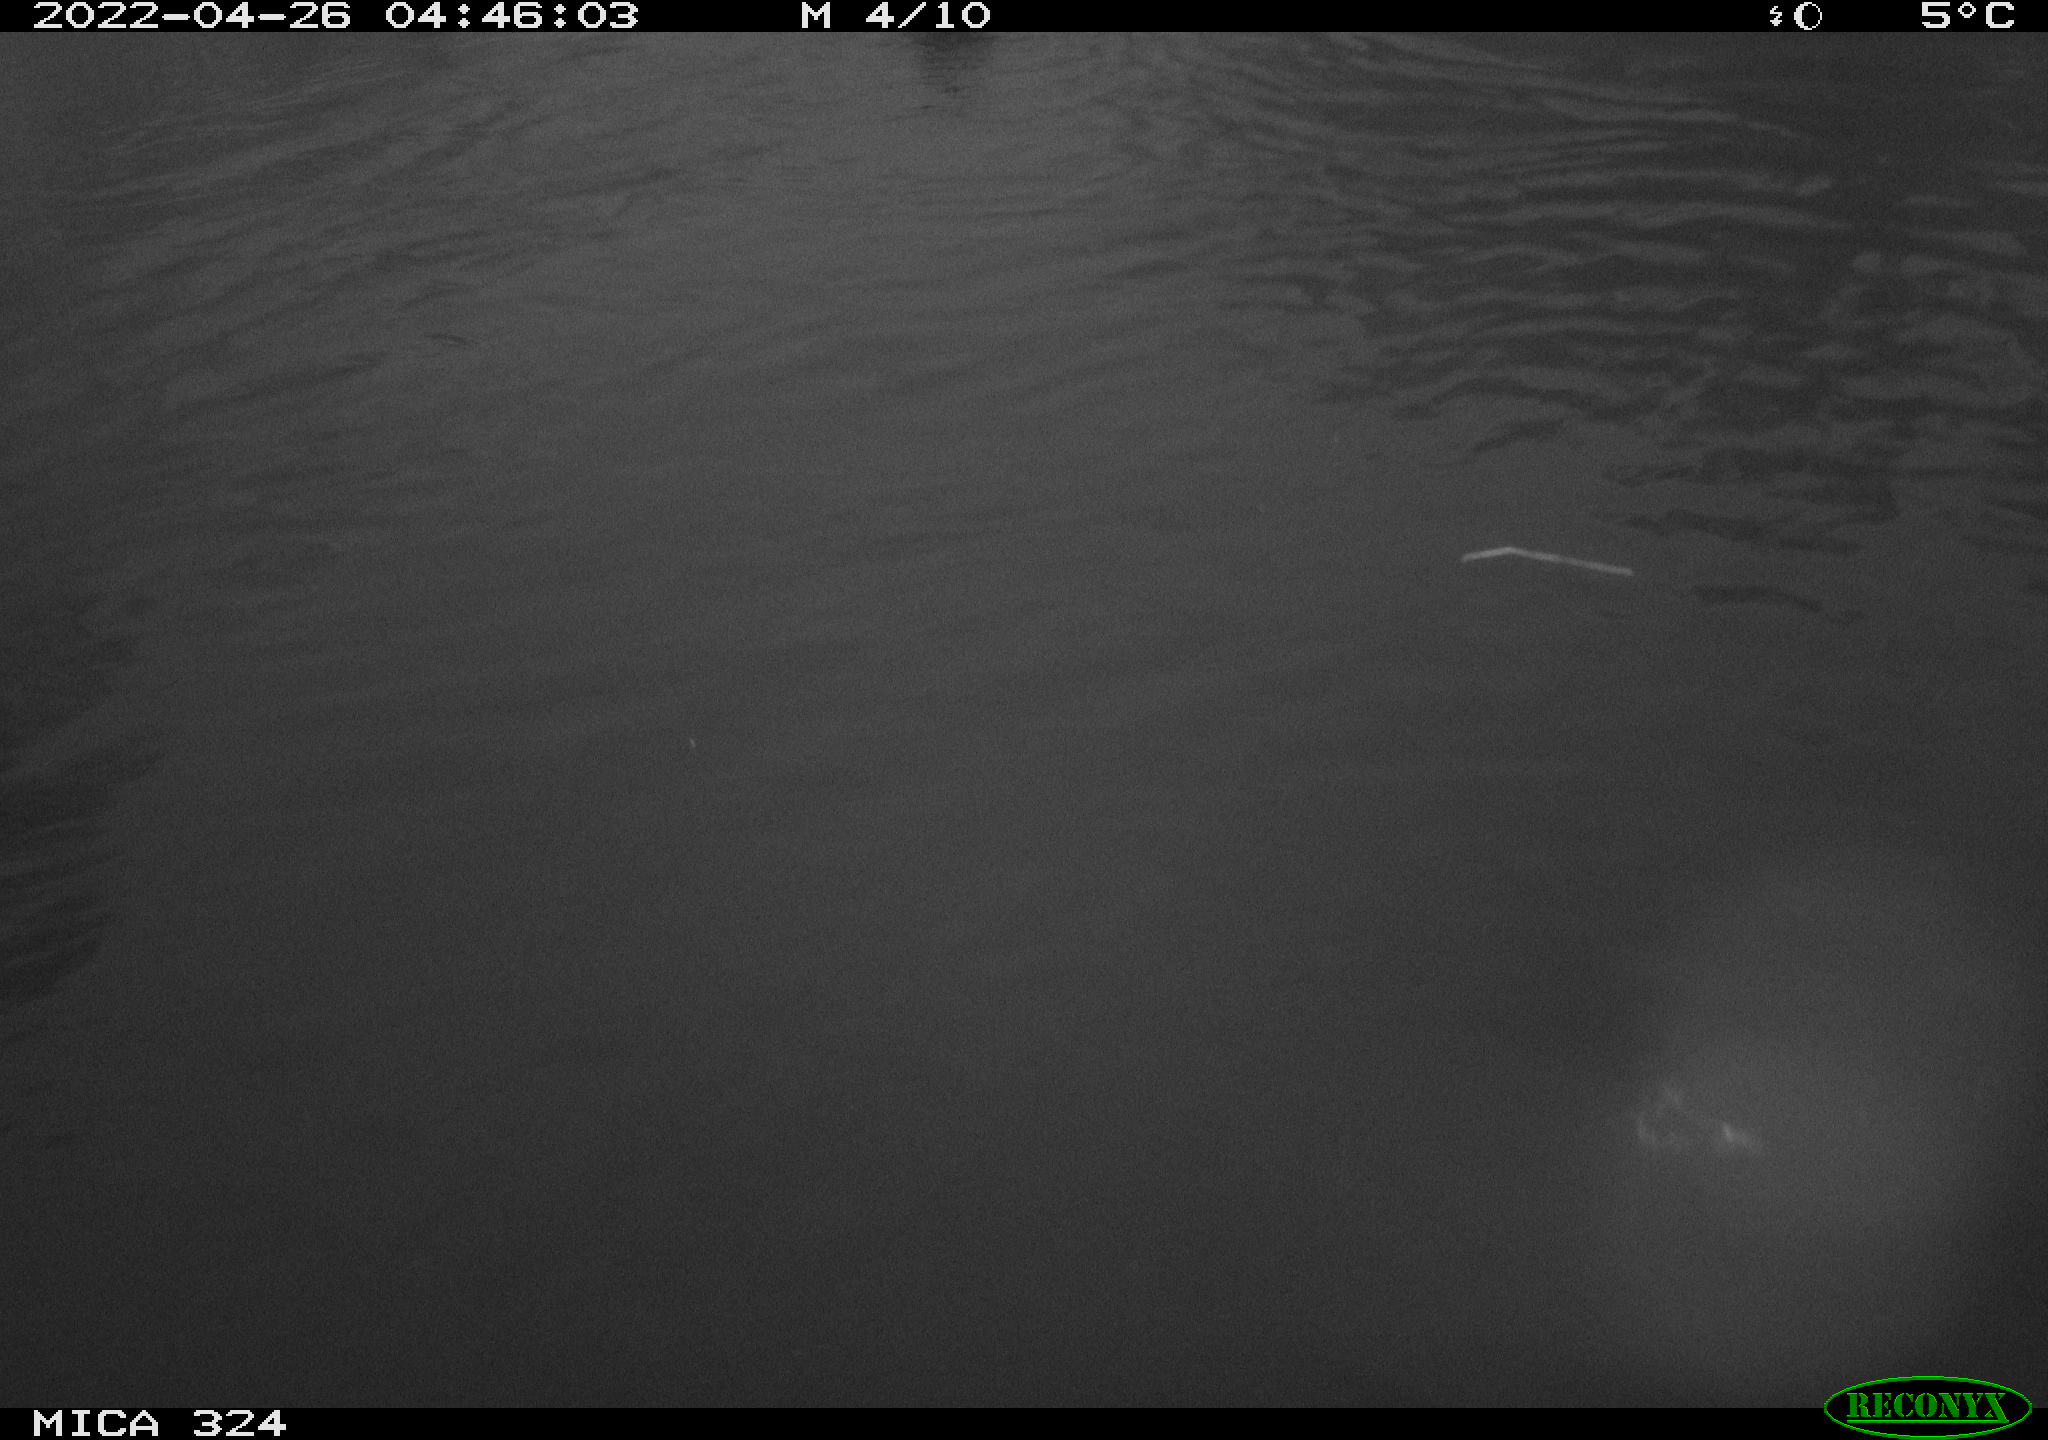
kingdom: Animalia
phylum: Chordata
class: Aves
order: Anseriformes
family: Anatidae
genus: Anas
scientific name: Anas platyrhynchos
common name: Mallard
